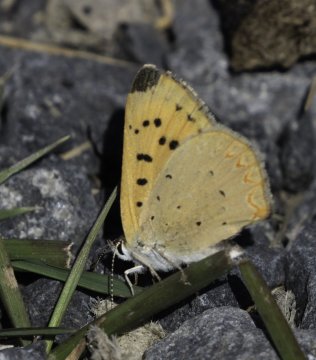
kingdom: Animalia
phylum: Arthropoda
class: Insecta
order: Lepidoptera
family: Sesiidae
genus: Sesia
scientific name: Sesia Lycaena helloides
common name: Purplish Copper
